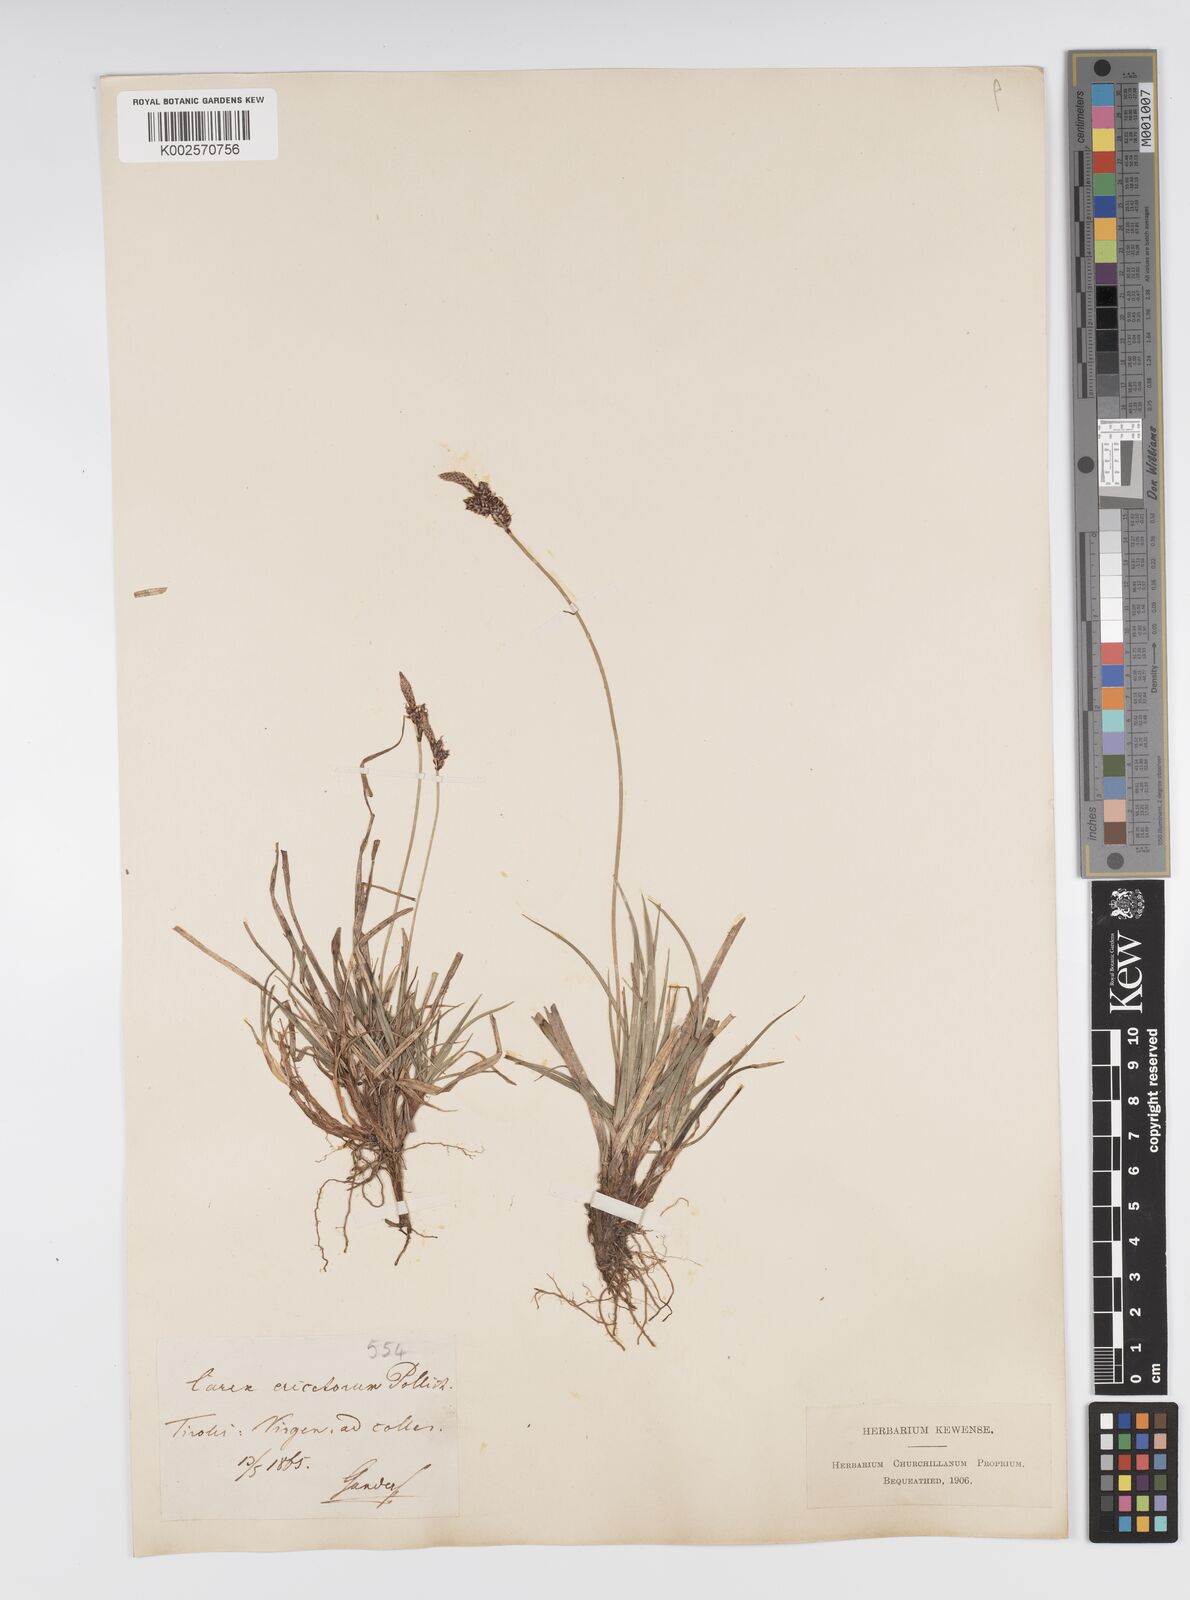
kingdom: Plantae
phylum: Tracheophyta
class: Liliopsida
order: Poales
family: Cyperaceae
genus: Carex
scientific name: Carex ericetorum
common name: Rare spring-sedge
